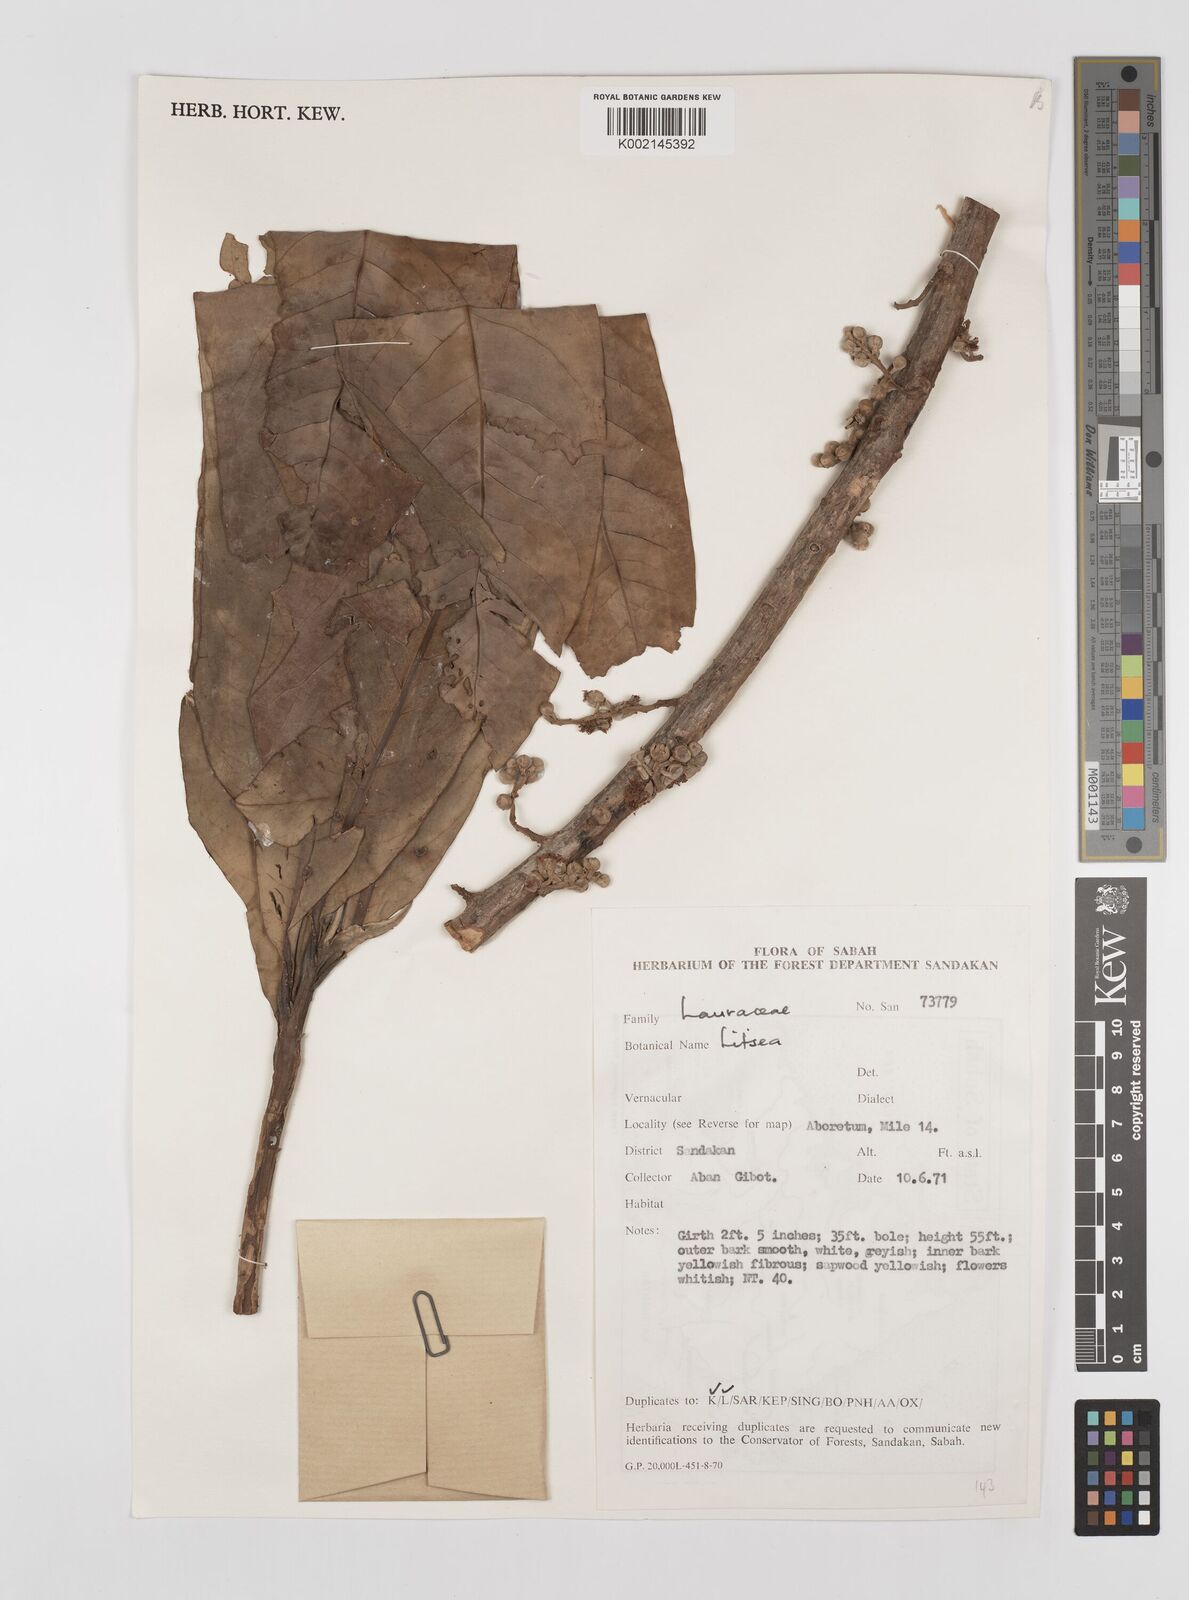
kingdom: Plantae
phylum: Tracheophyta
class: Magnoliopsida
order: Laurales
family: Lauraceae
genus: Litsea
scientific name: Litsea
